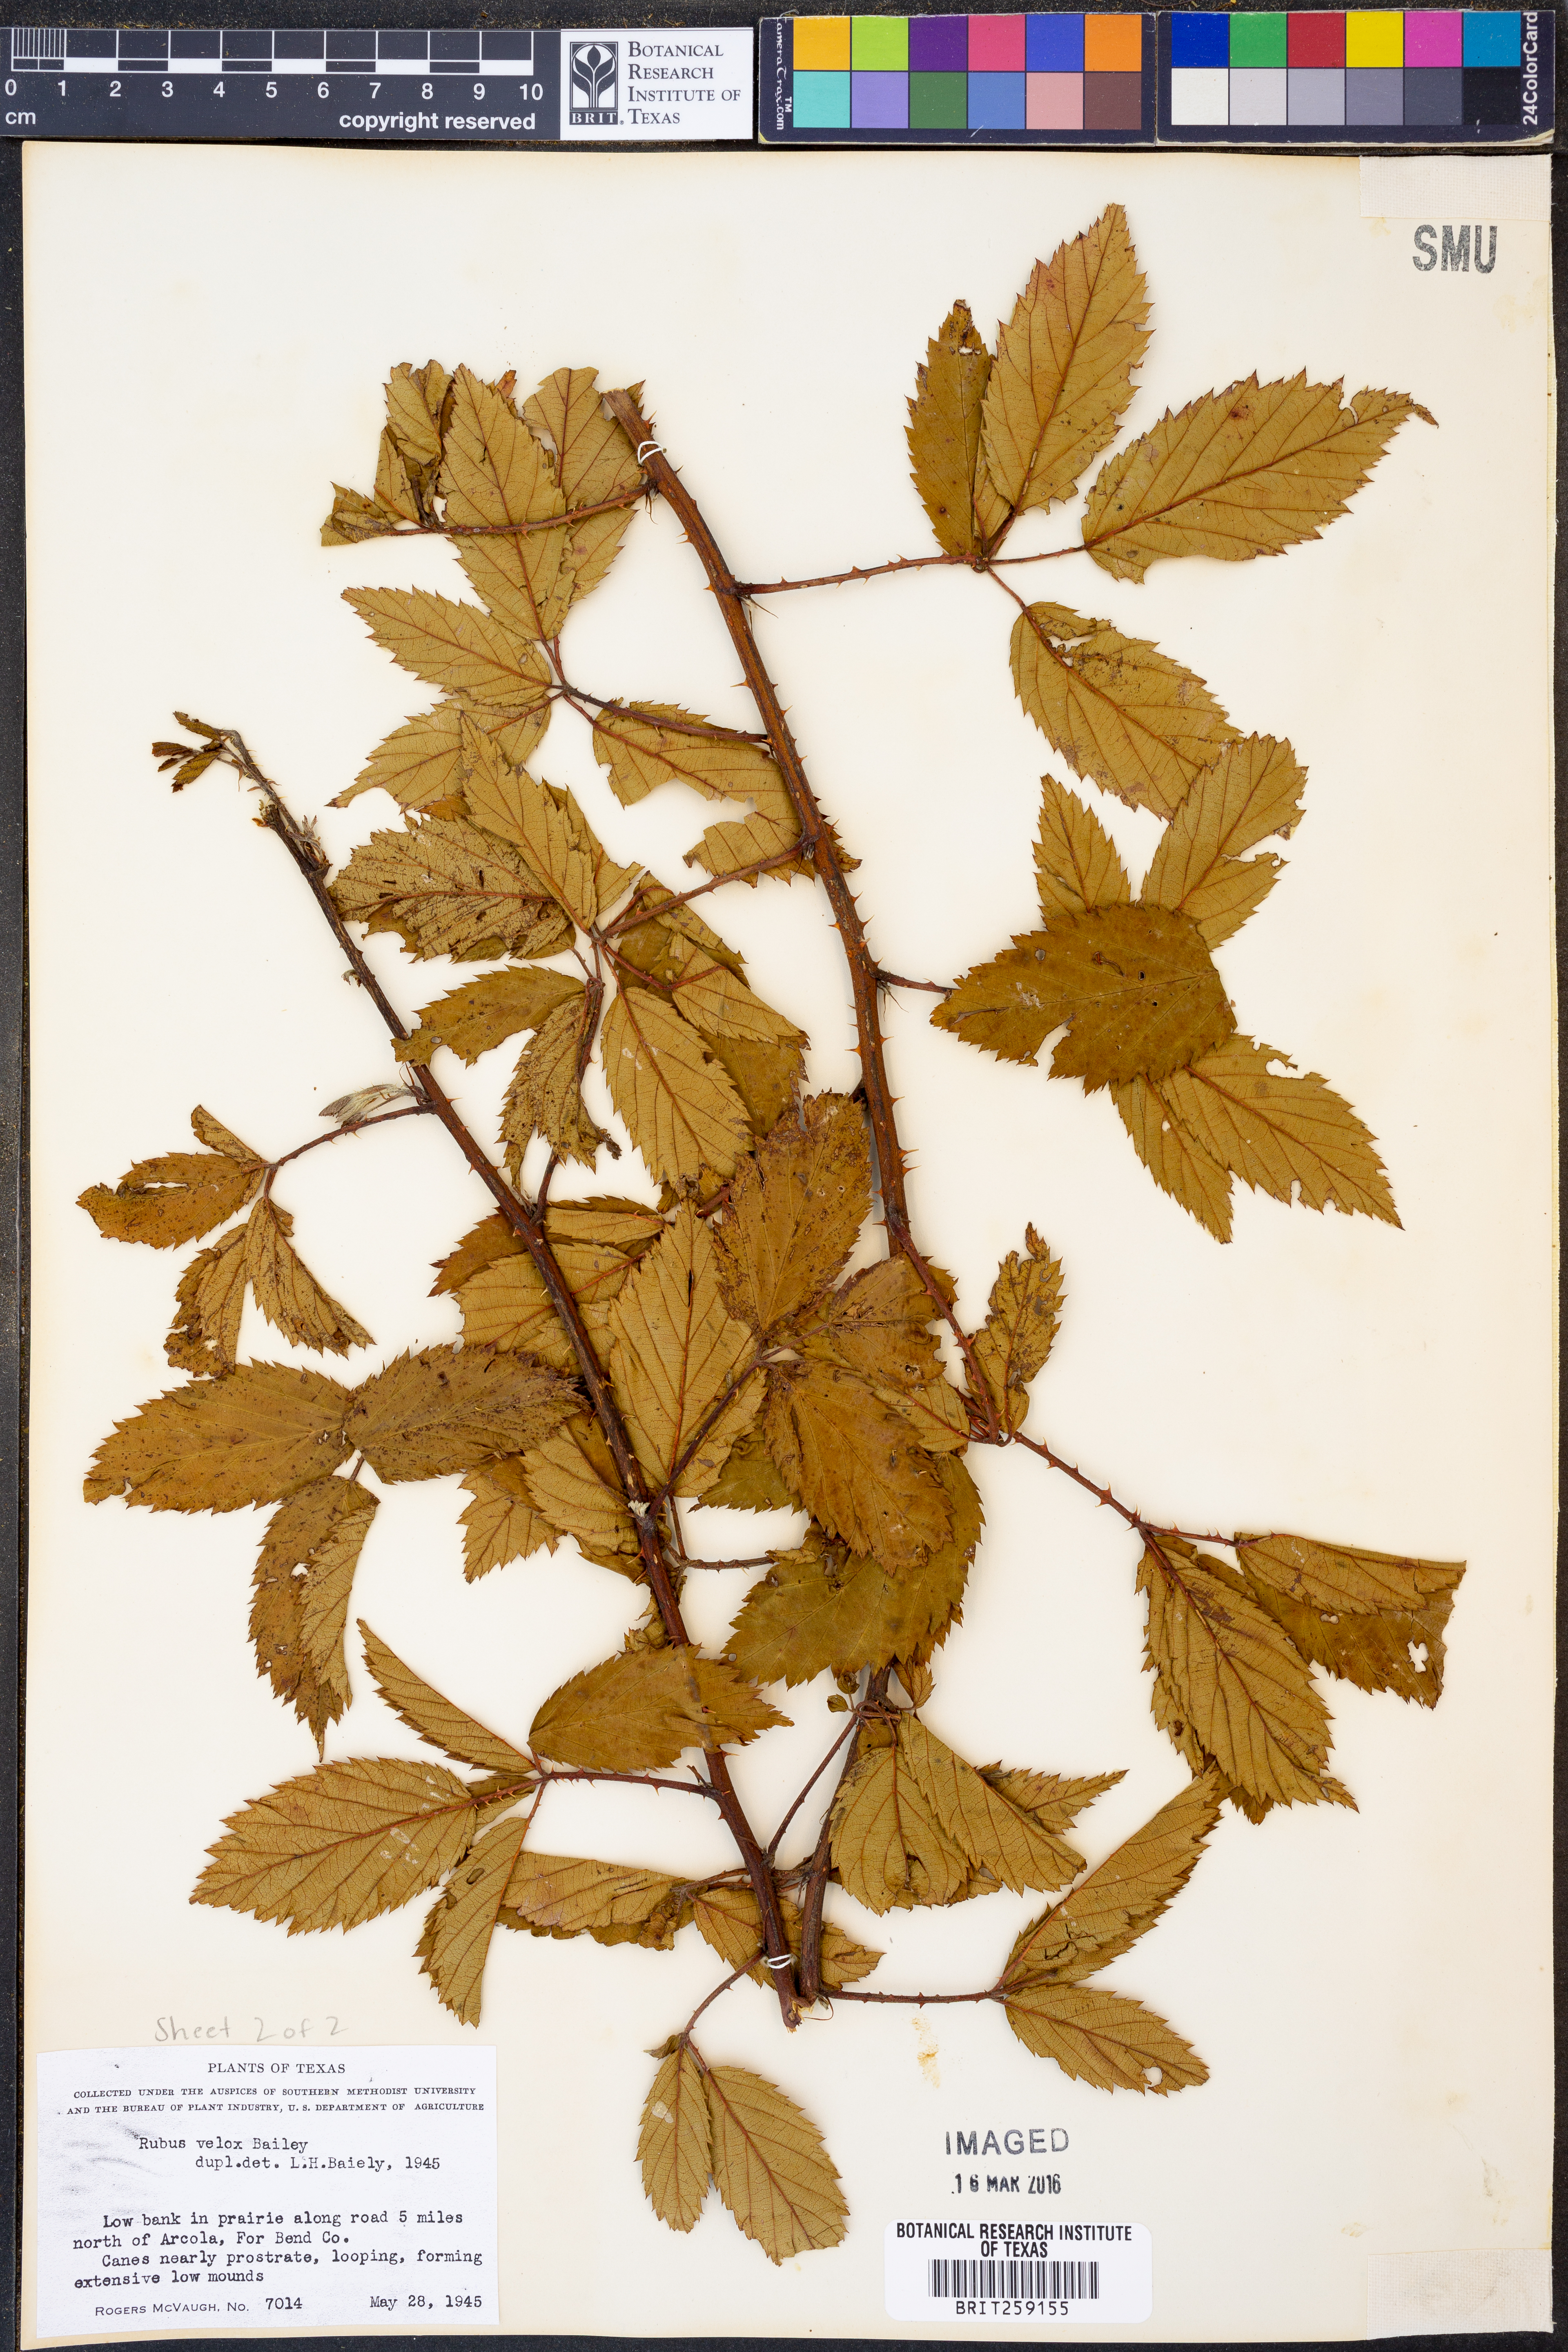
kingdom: Plantae
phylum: Tracheophyta
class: Magnoliopsida
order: Rosales
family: Rosaceae
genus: Rubus
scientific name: Rubus velox
